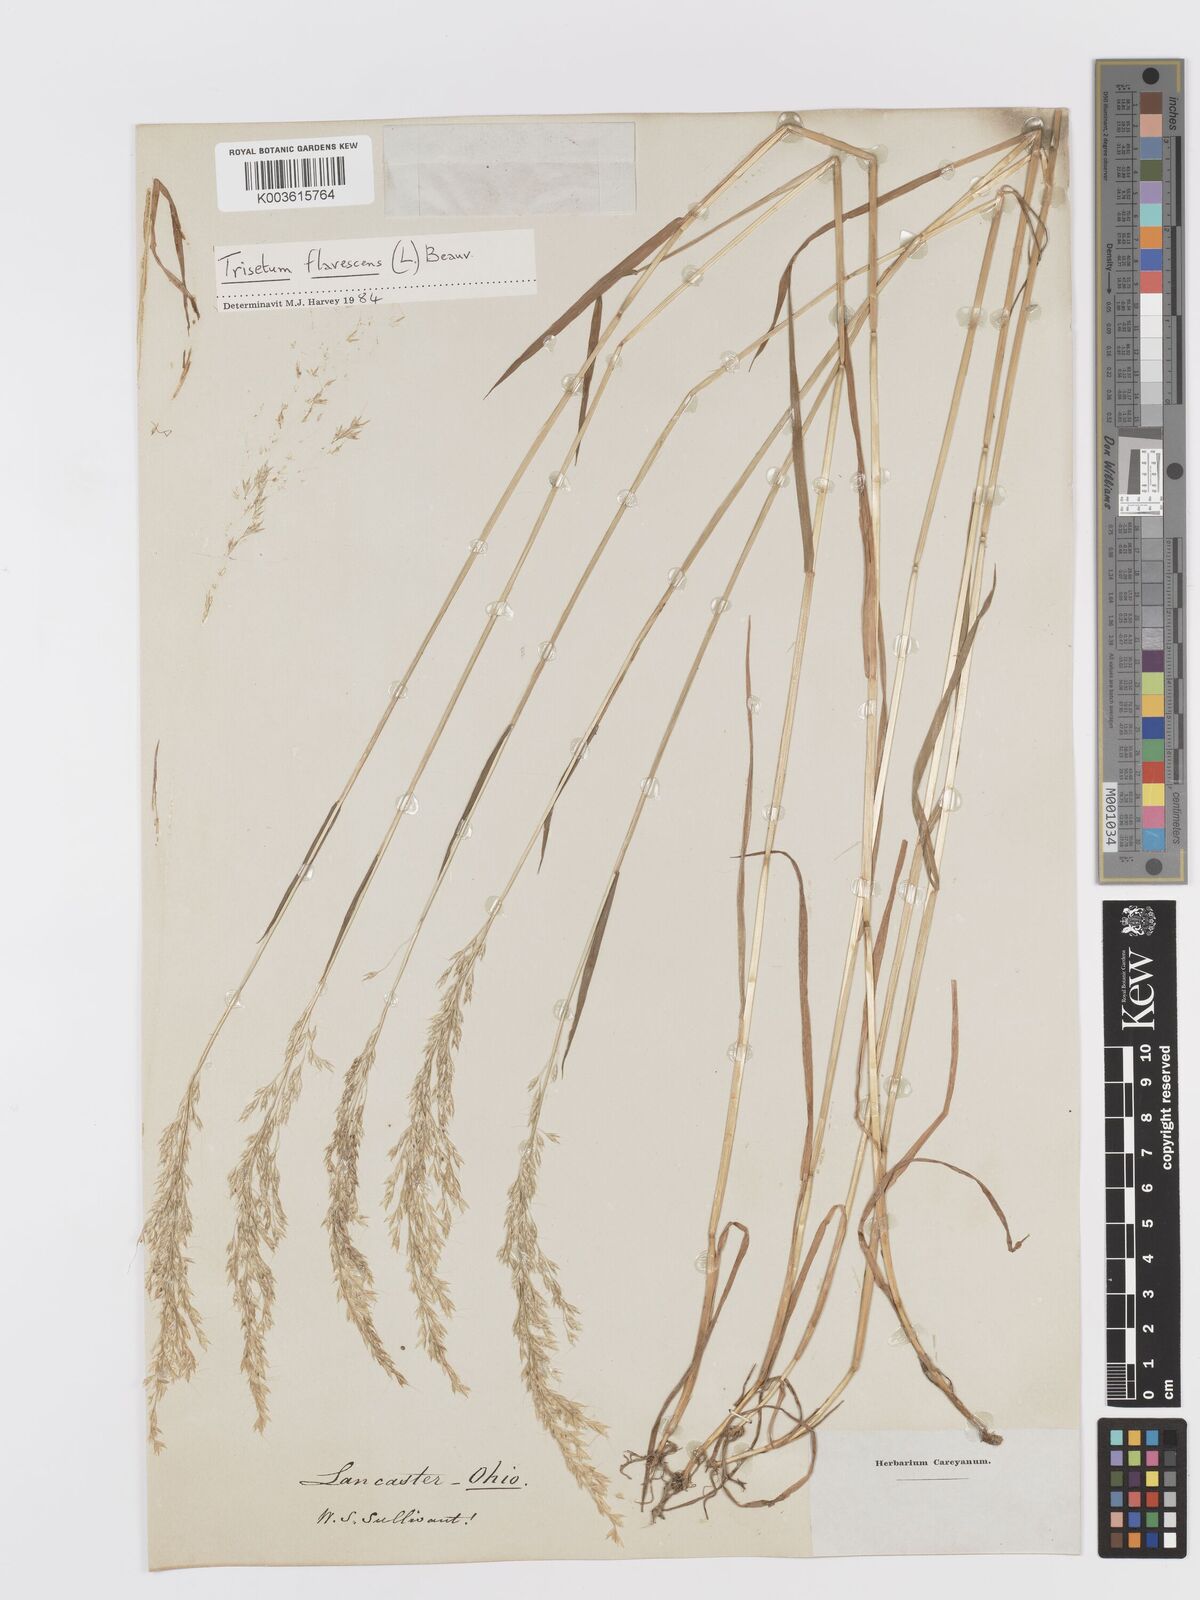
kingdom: Plantae
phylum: Tracheophyta
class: Liliopsida
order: Poales
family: Poaceae
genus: Trisetum
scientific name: Trisetum
